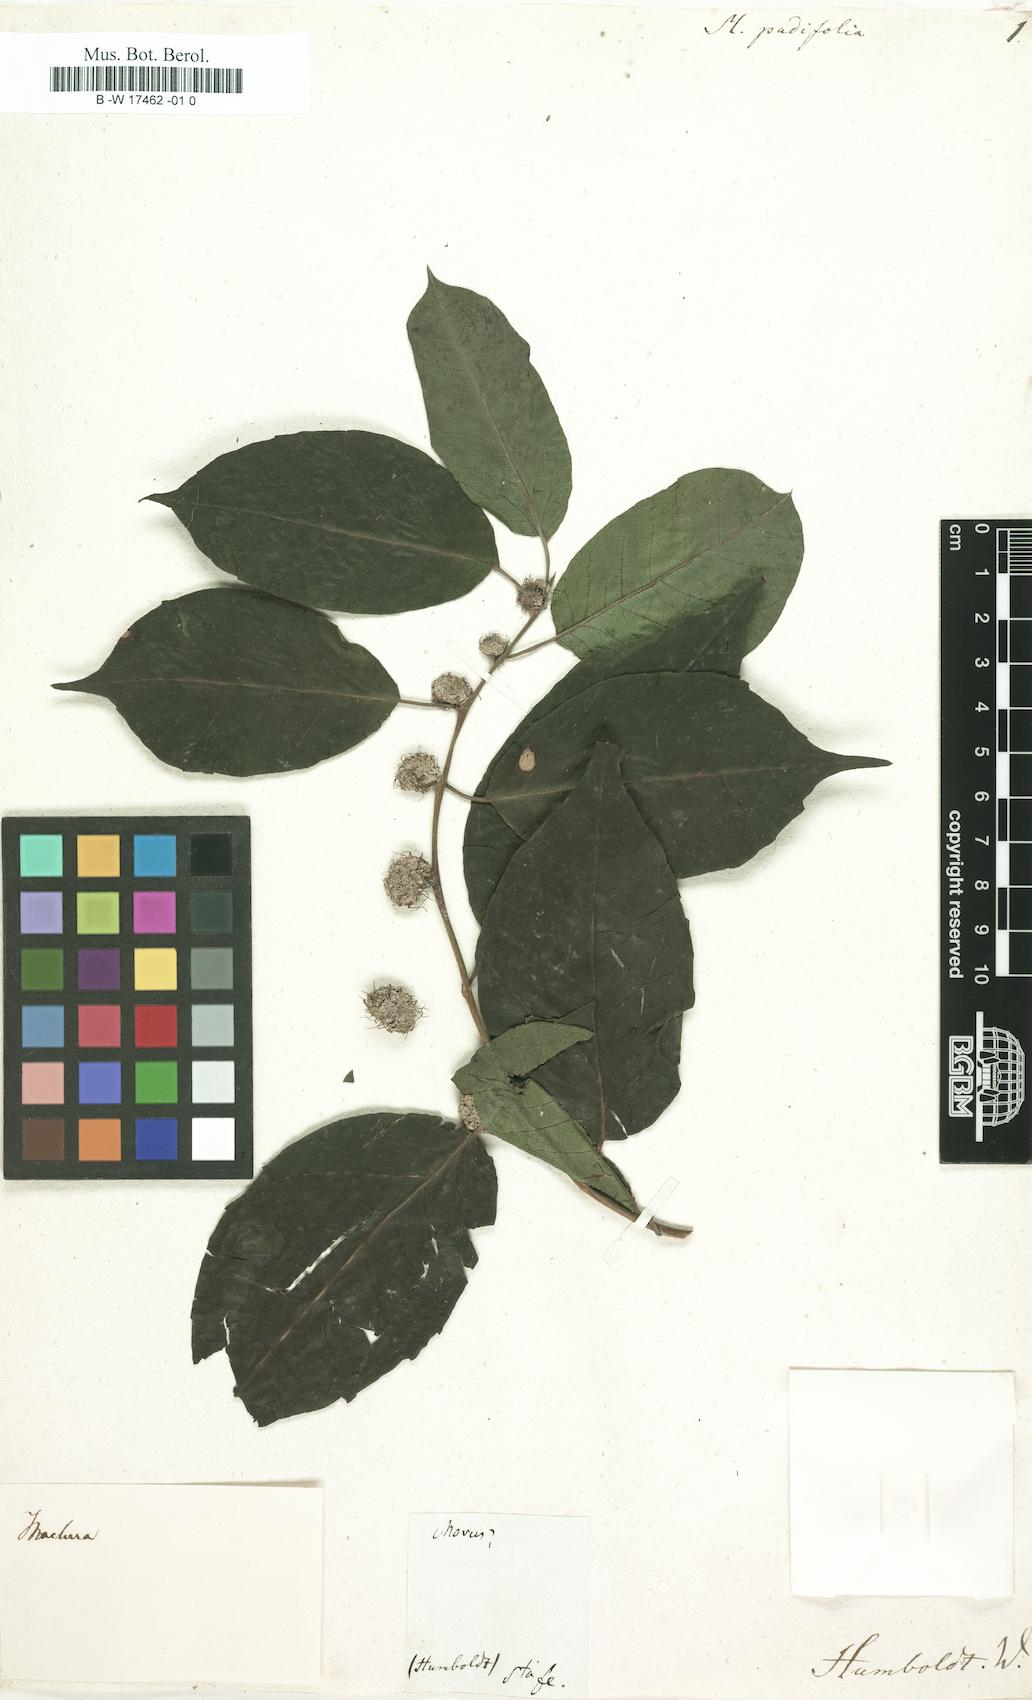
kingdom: Plantae
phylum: Tracheophyta
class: Magnoliopsida
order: Rosales
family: Moraceae
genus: Morus
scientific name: Morus
